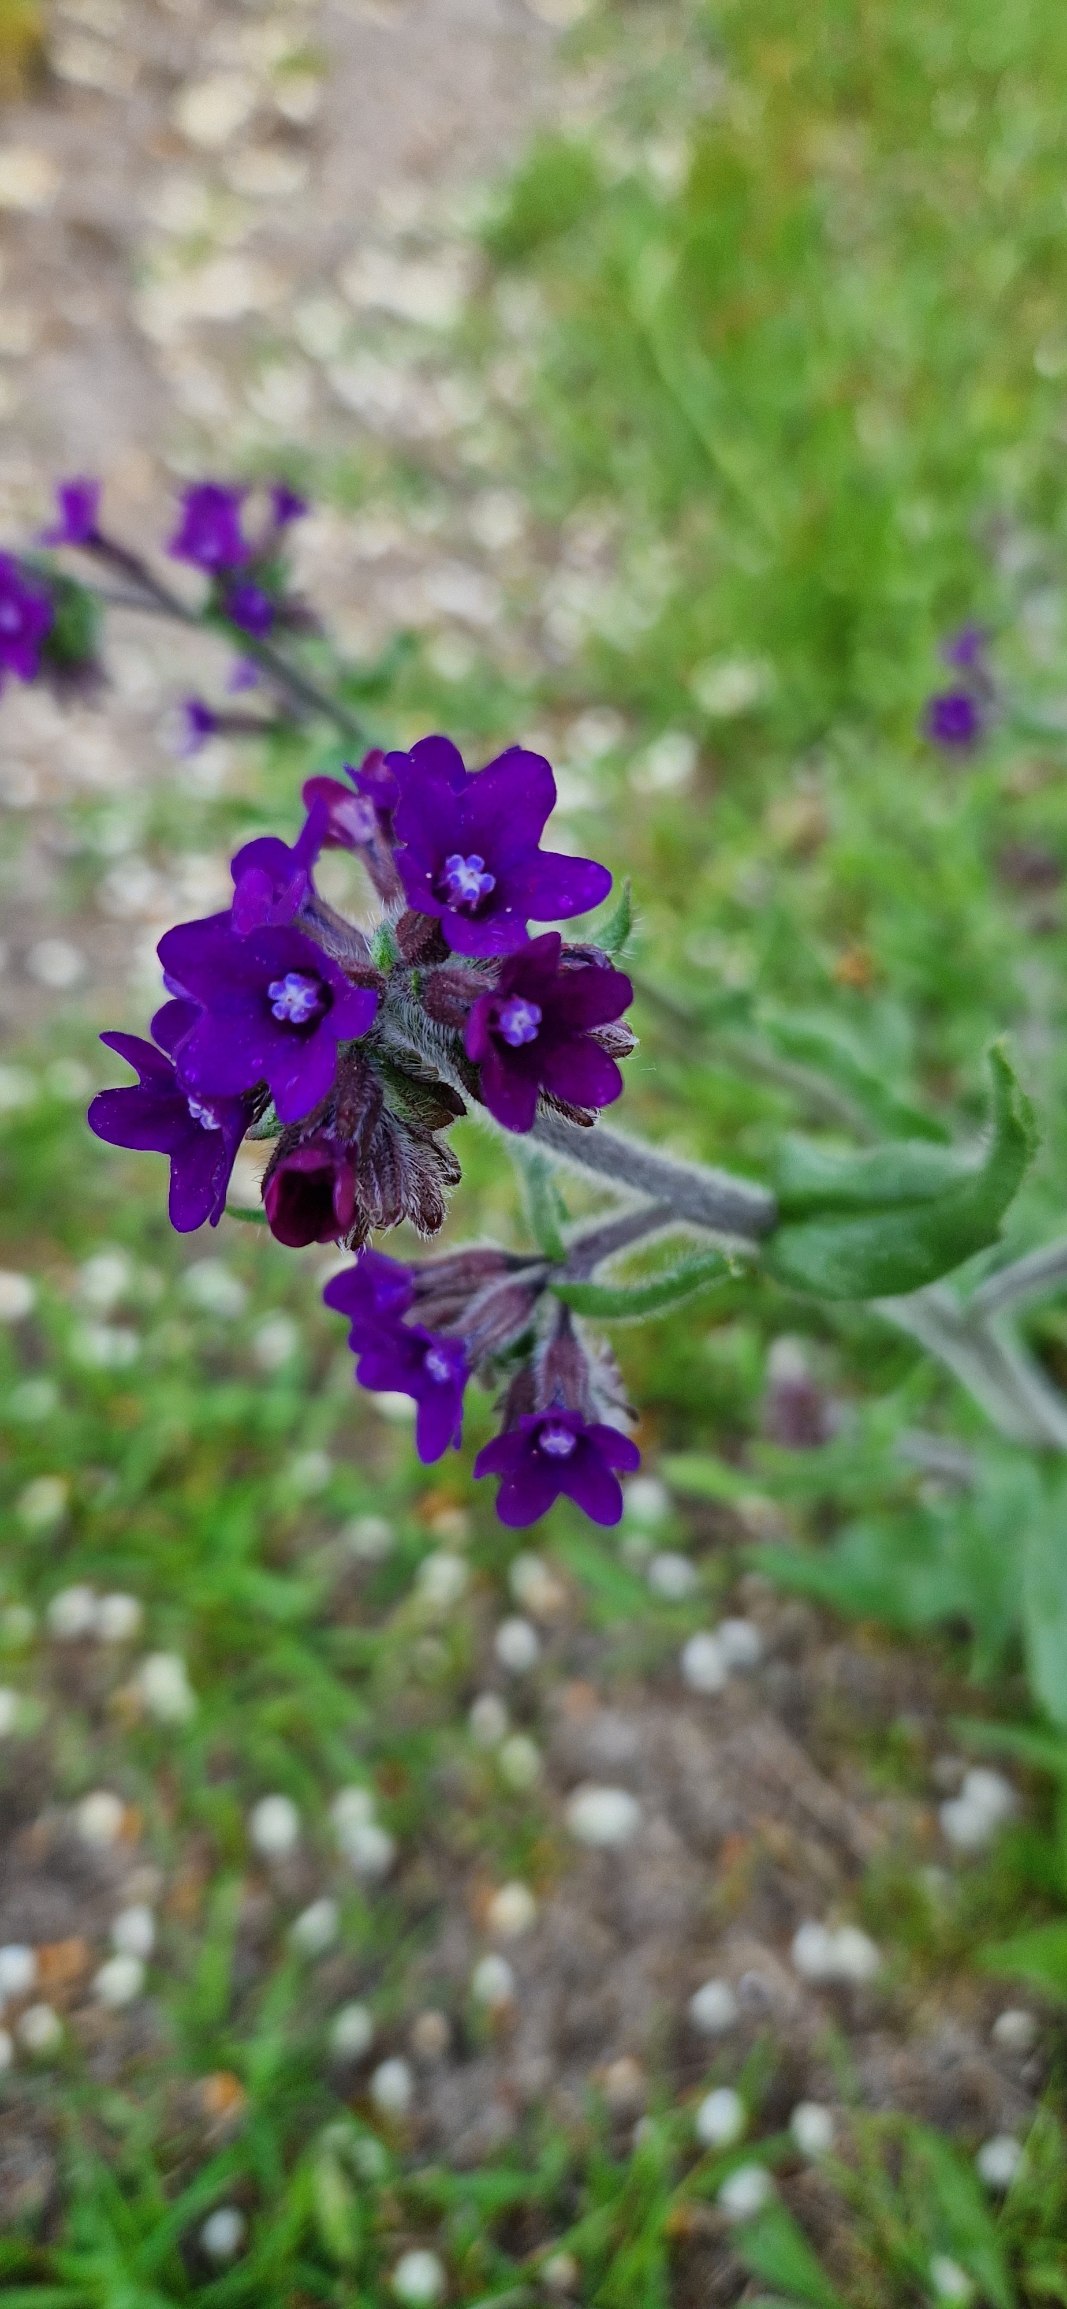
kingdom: Plantae
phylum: Tracheophyta
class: Magnoliopsida
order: Boraginales
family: Boraginaceae
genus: Anchusa
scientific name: Anchusa officinalis
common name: Læge-oksetunge
